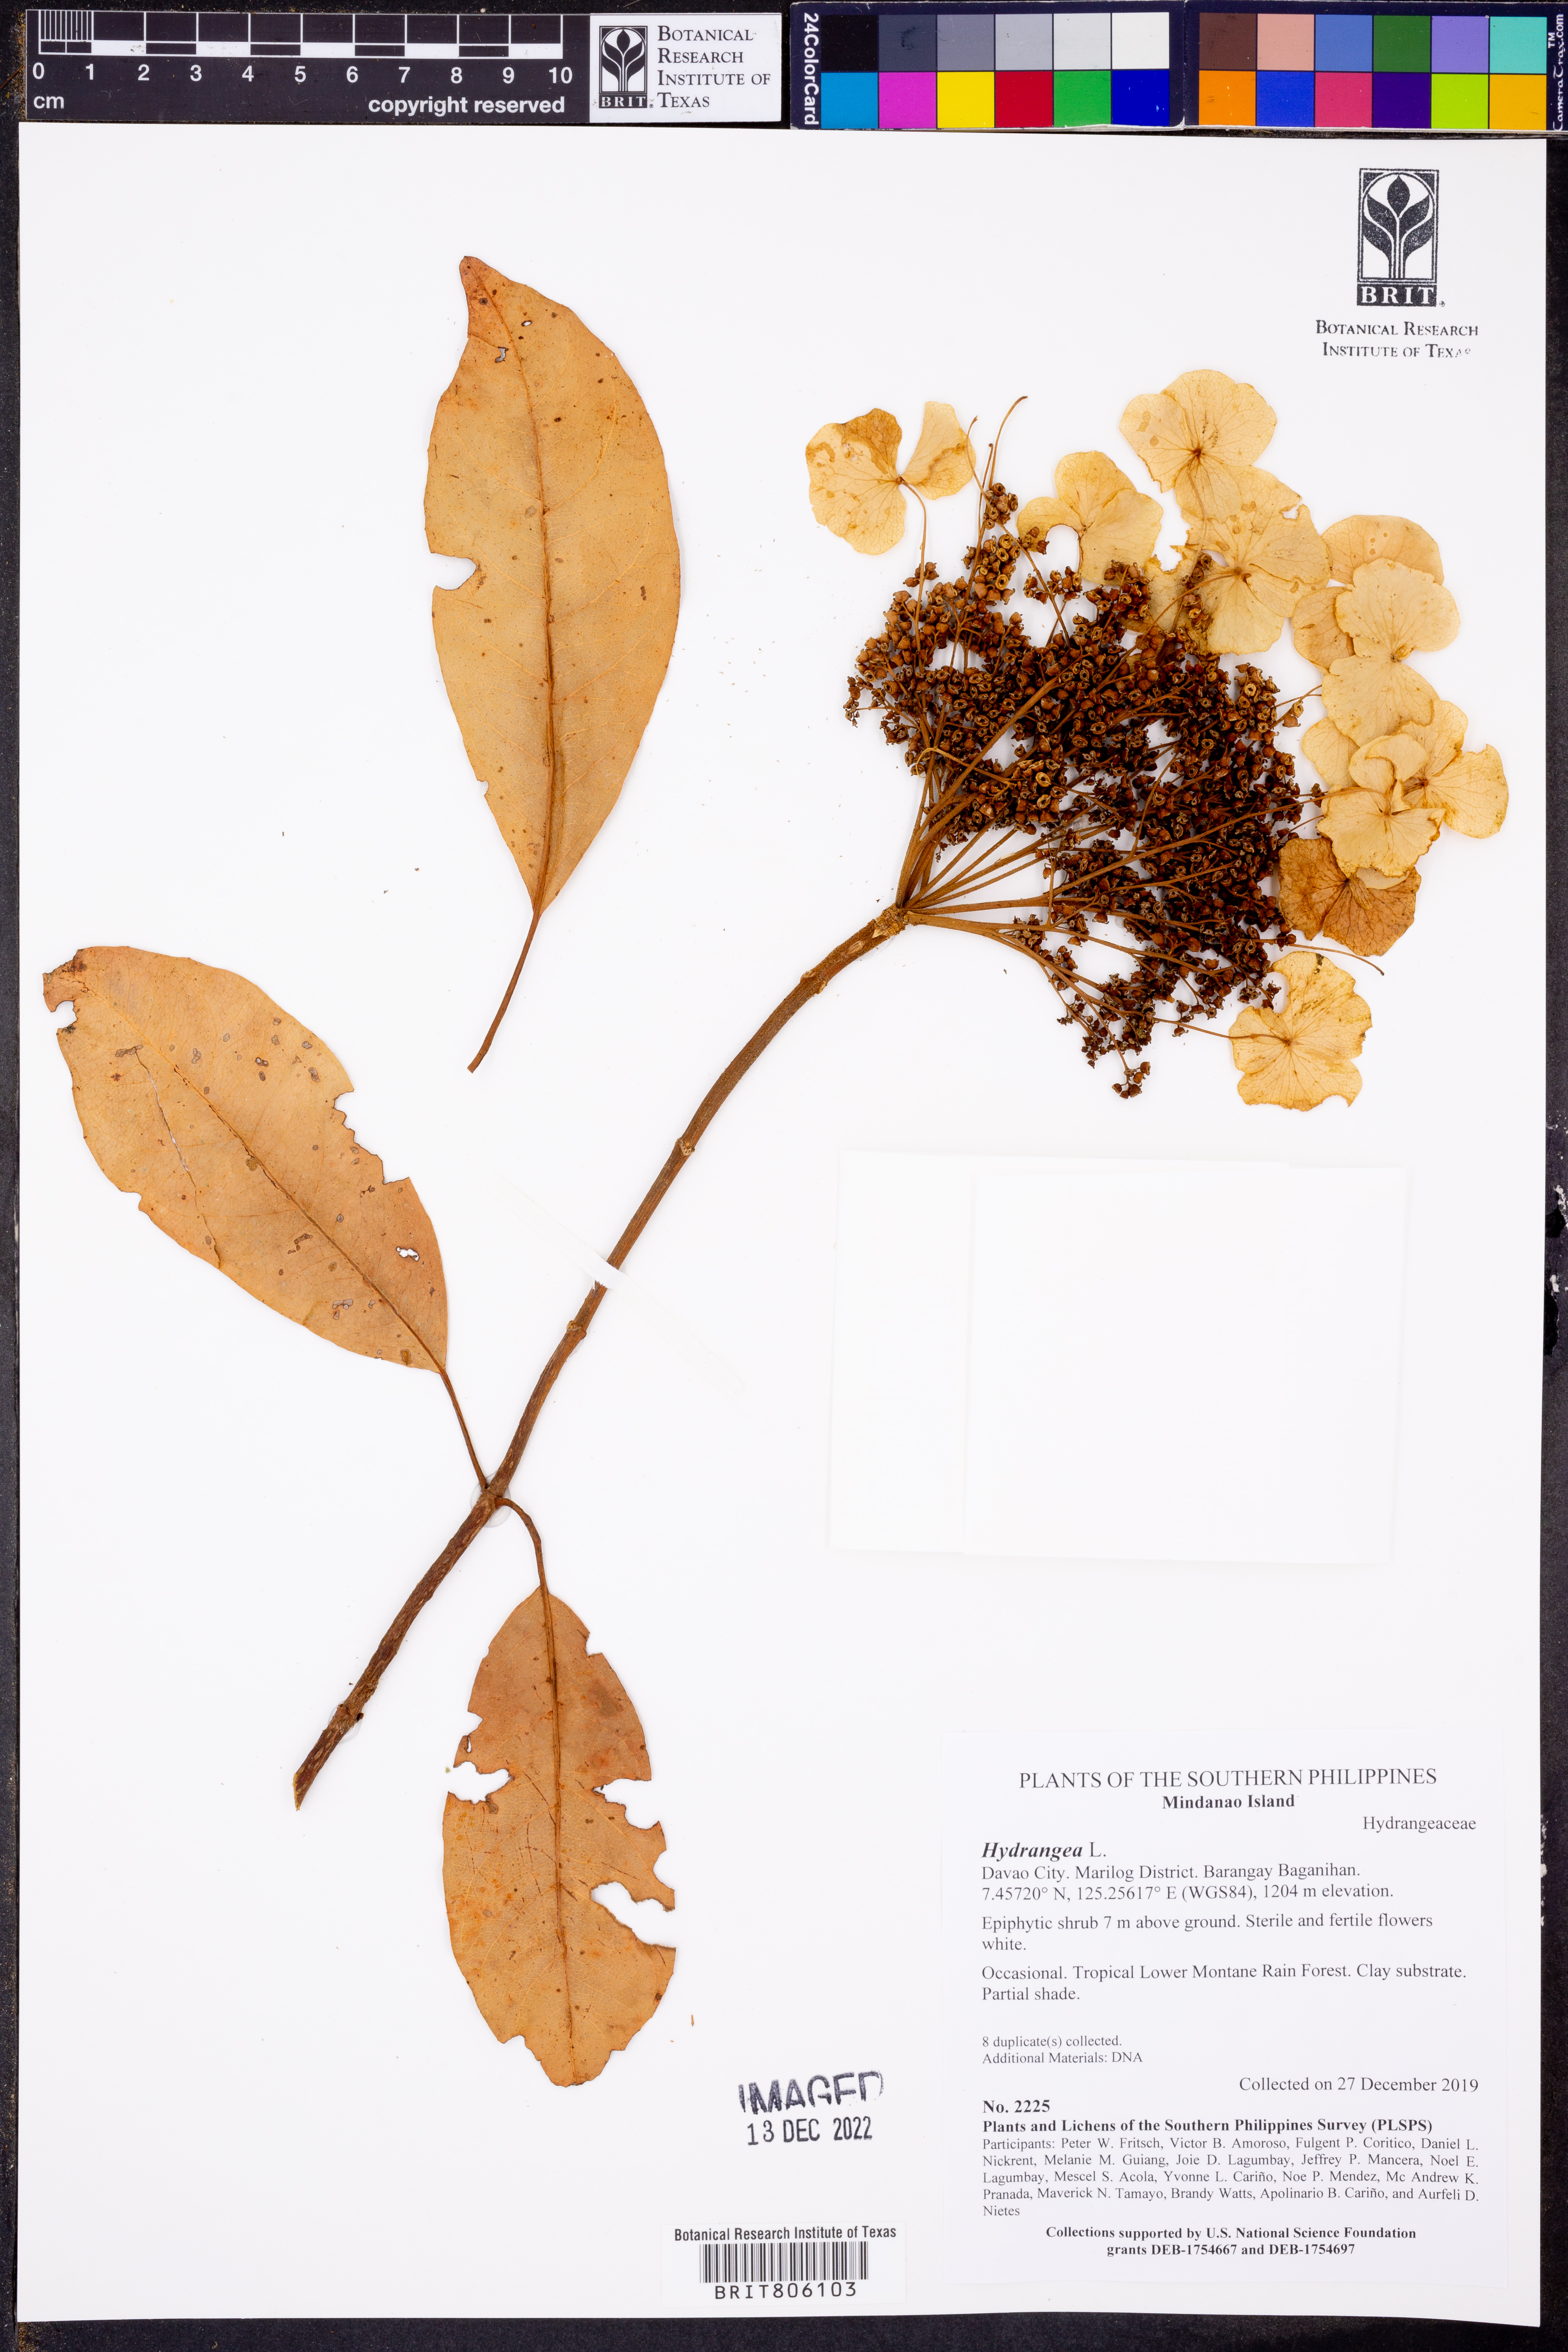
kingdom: Plantae
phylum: Tracheophyta
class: Magnoliopsida
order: Cornales
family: Hydrangeaceae
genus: Hydrangea
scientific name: Hydrangea
